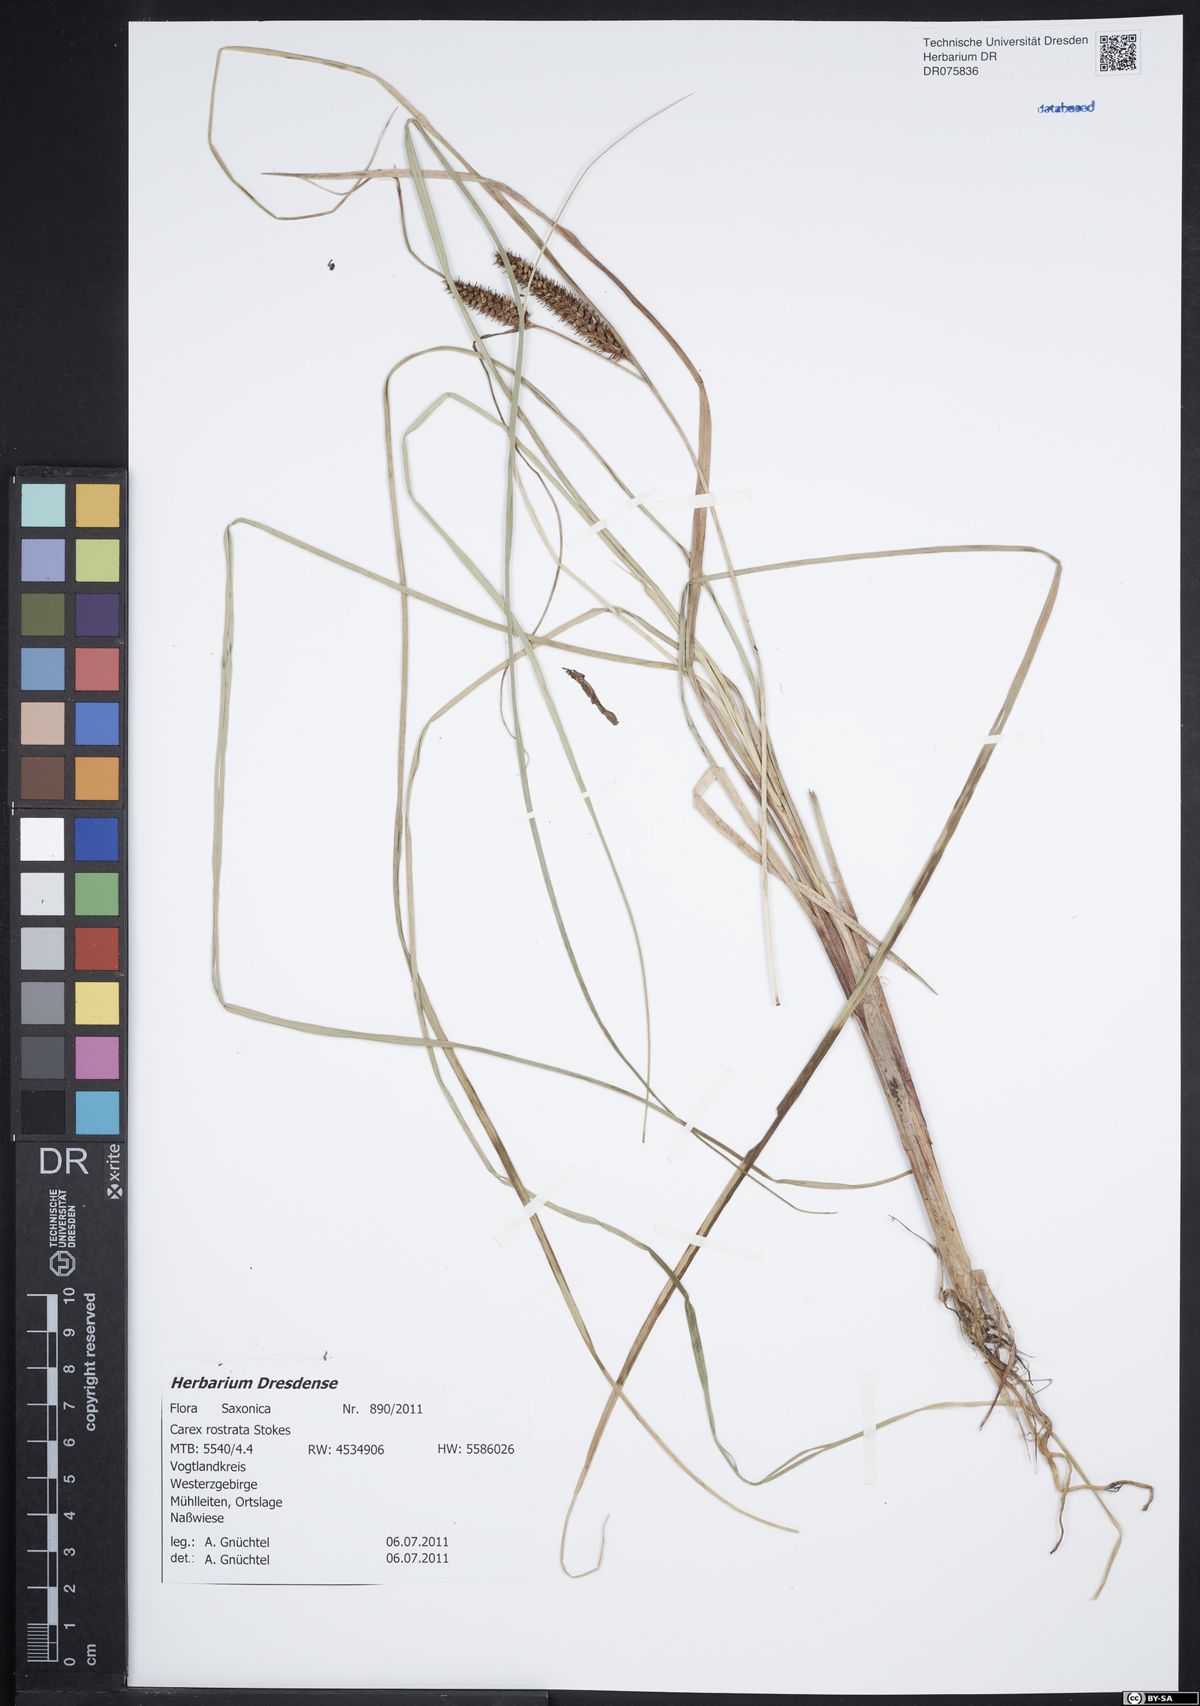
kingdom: Plantae
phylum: Tracheophyta
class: Liliopsida
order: Poales
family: Cyperaceae
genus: Carex
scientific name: Carex rostrata
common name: Bottle sedge
